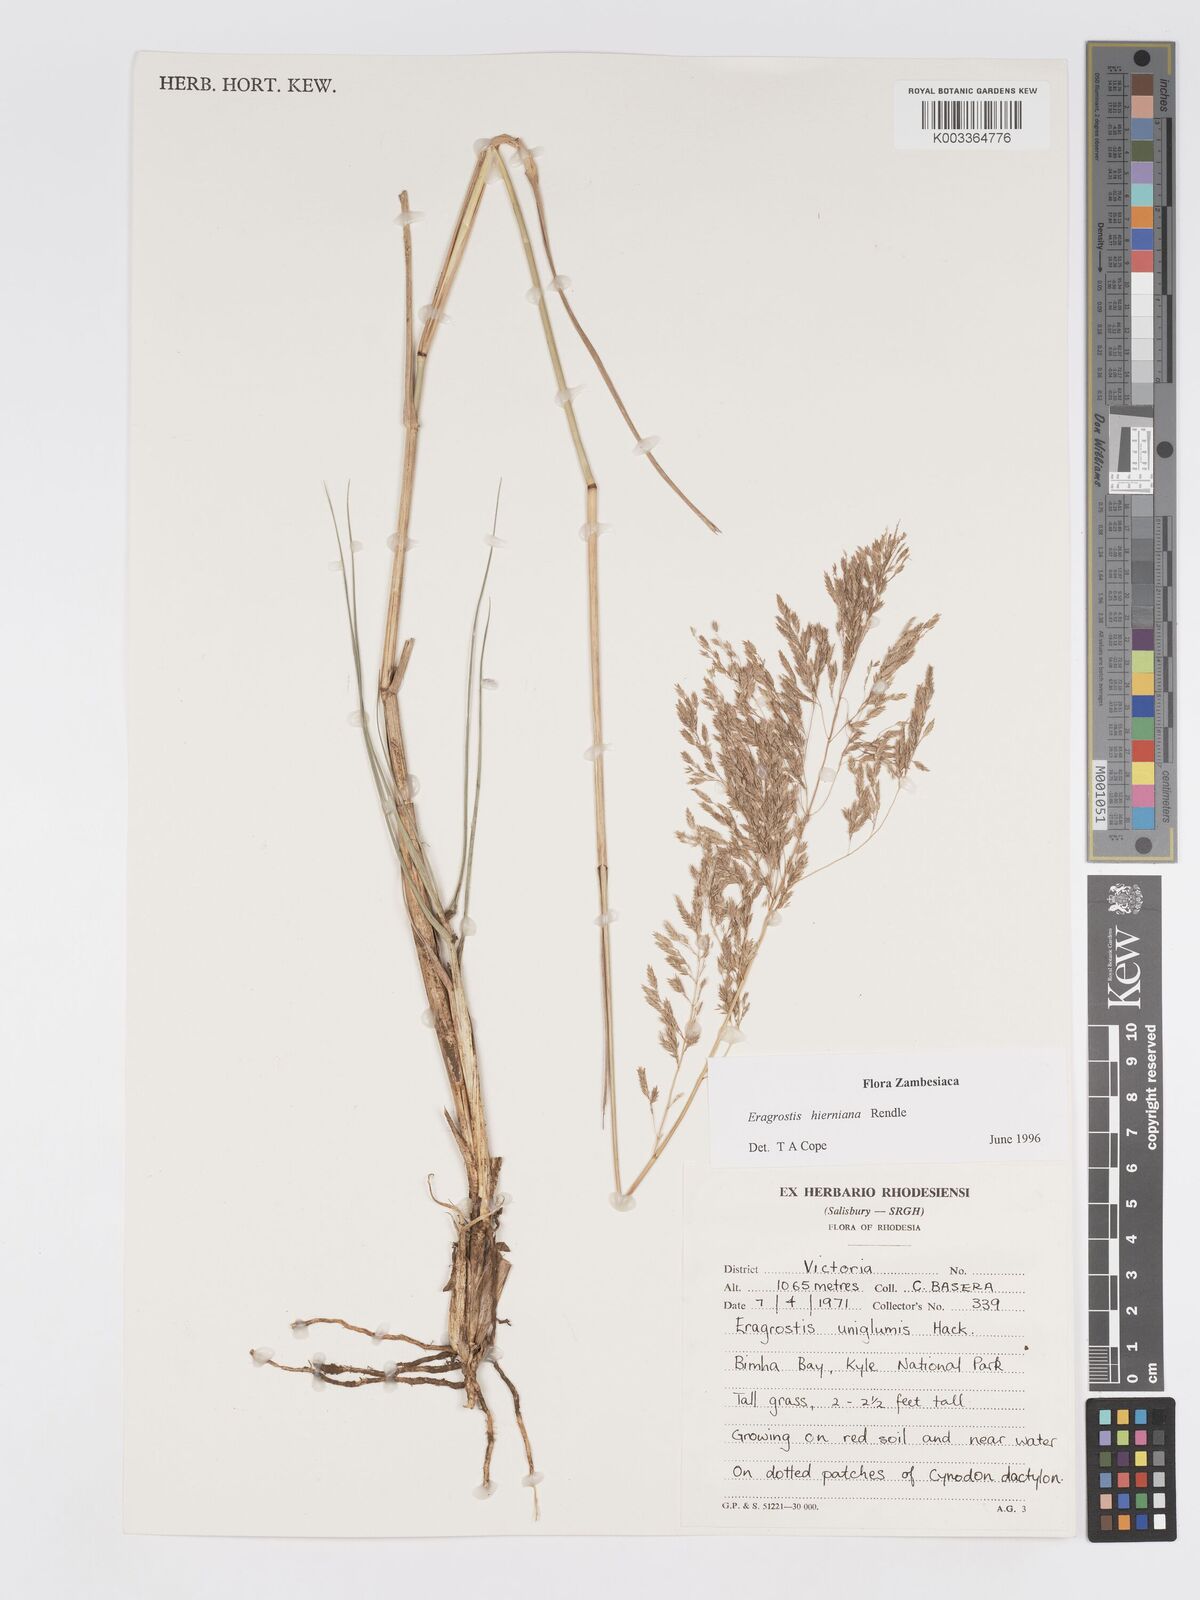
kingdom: Plantae
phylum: Tracheophyta
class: Liliopsida
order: Poales
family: Poaceae
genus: Eragrostis
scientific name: Eragrostis hierniana
